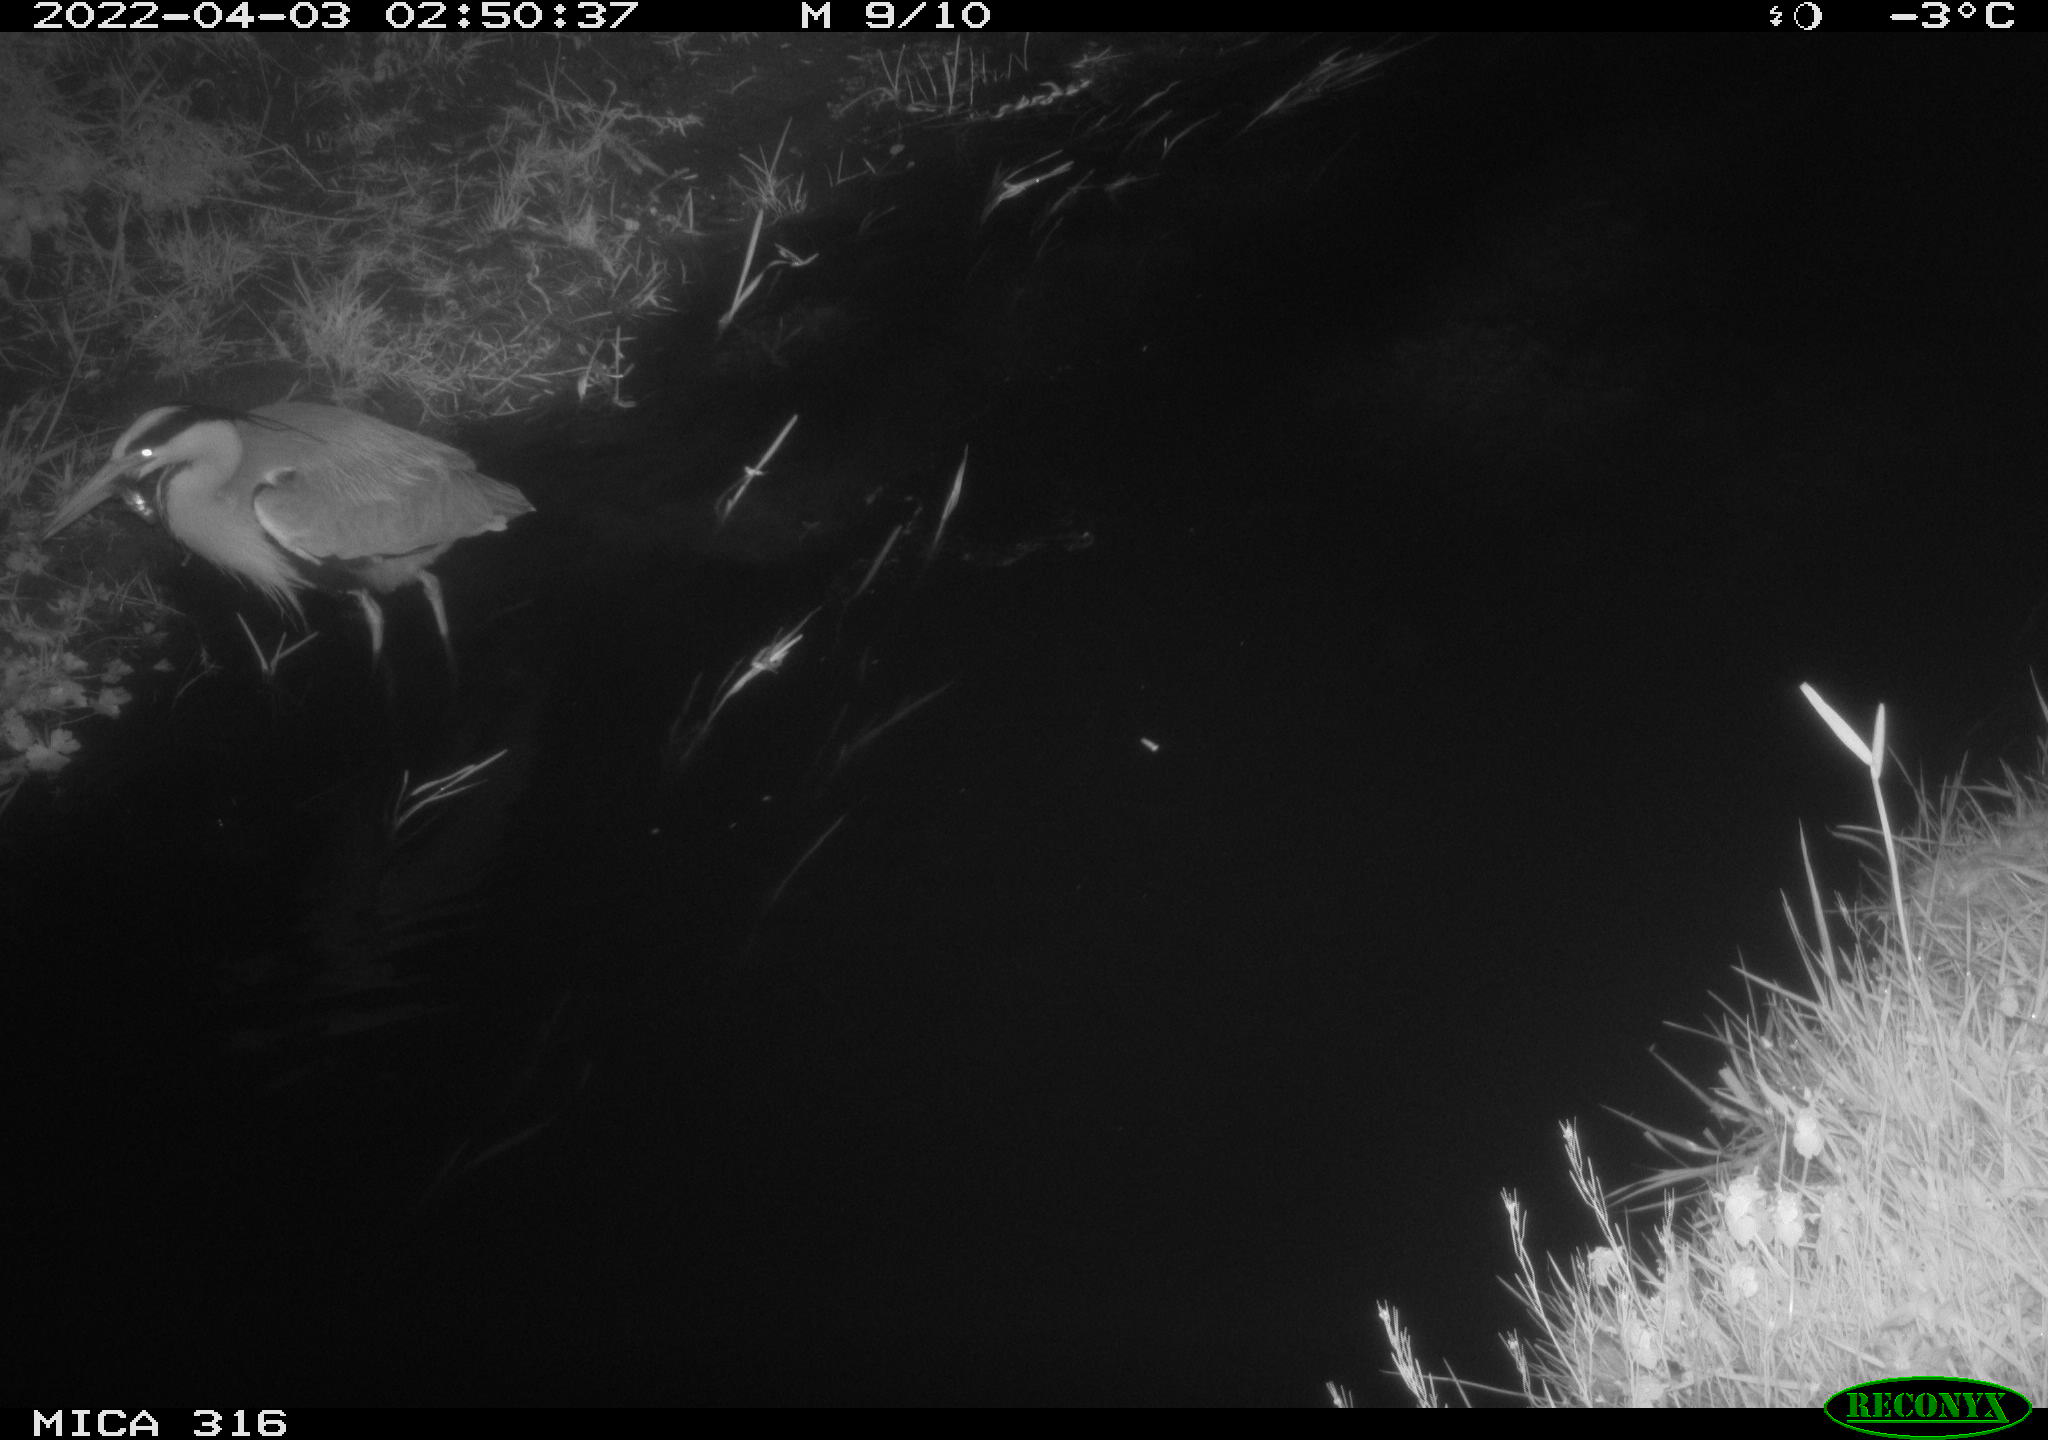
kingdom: Animalia
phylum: Chordata
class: Aves
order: Pelecaniformes
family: Ardeidae
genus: Ardea
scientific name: Ardea
